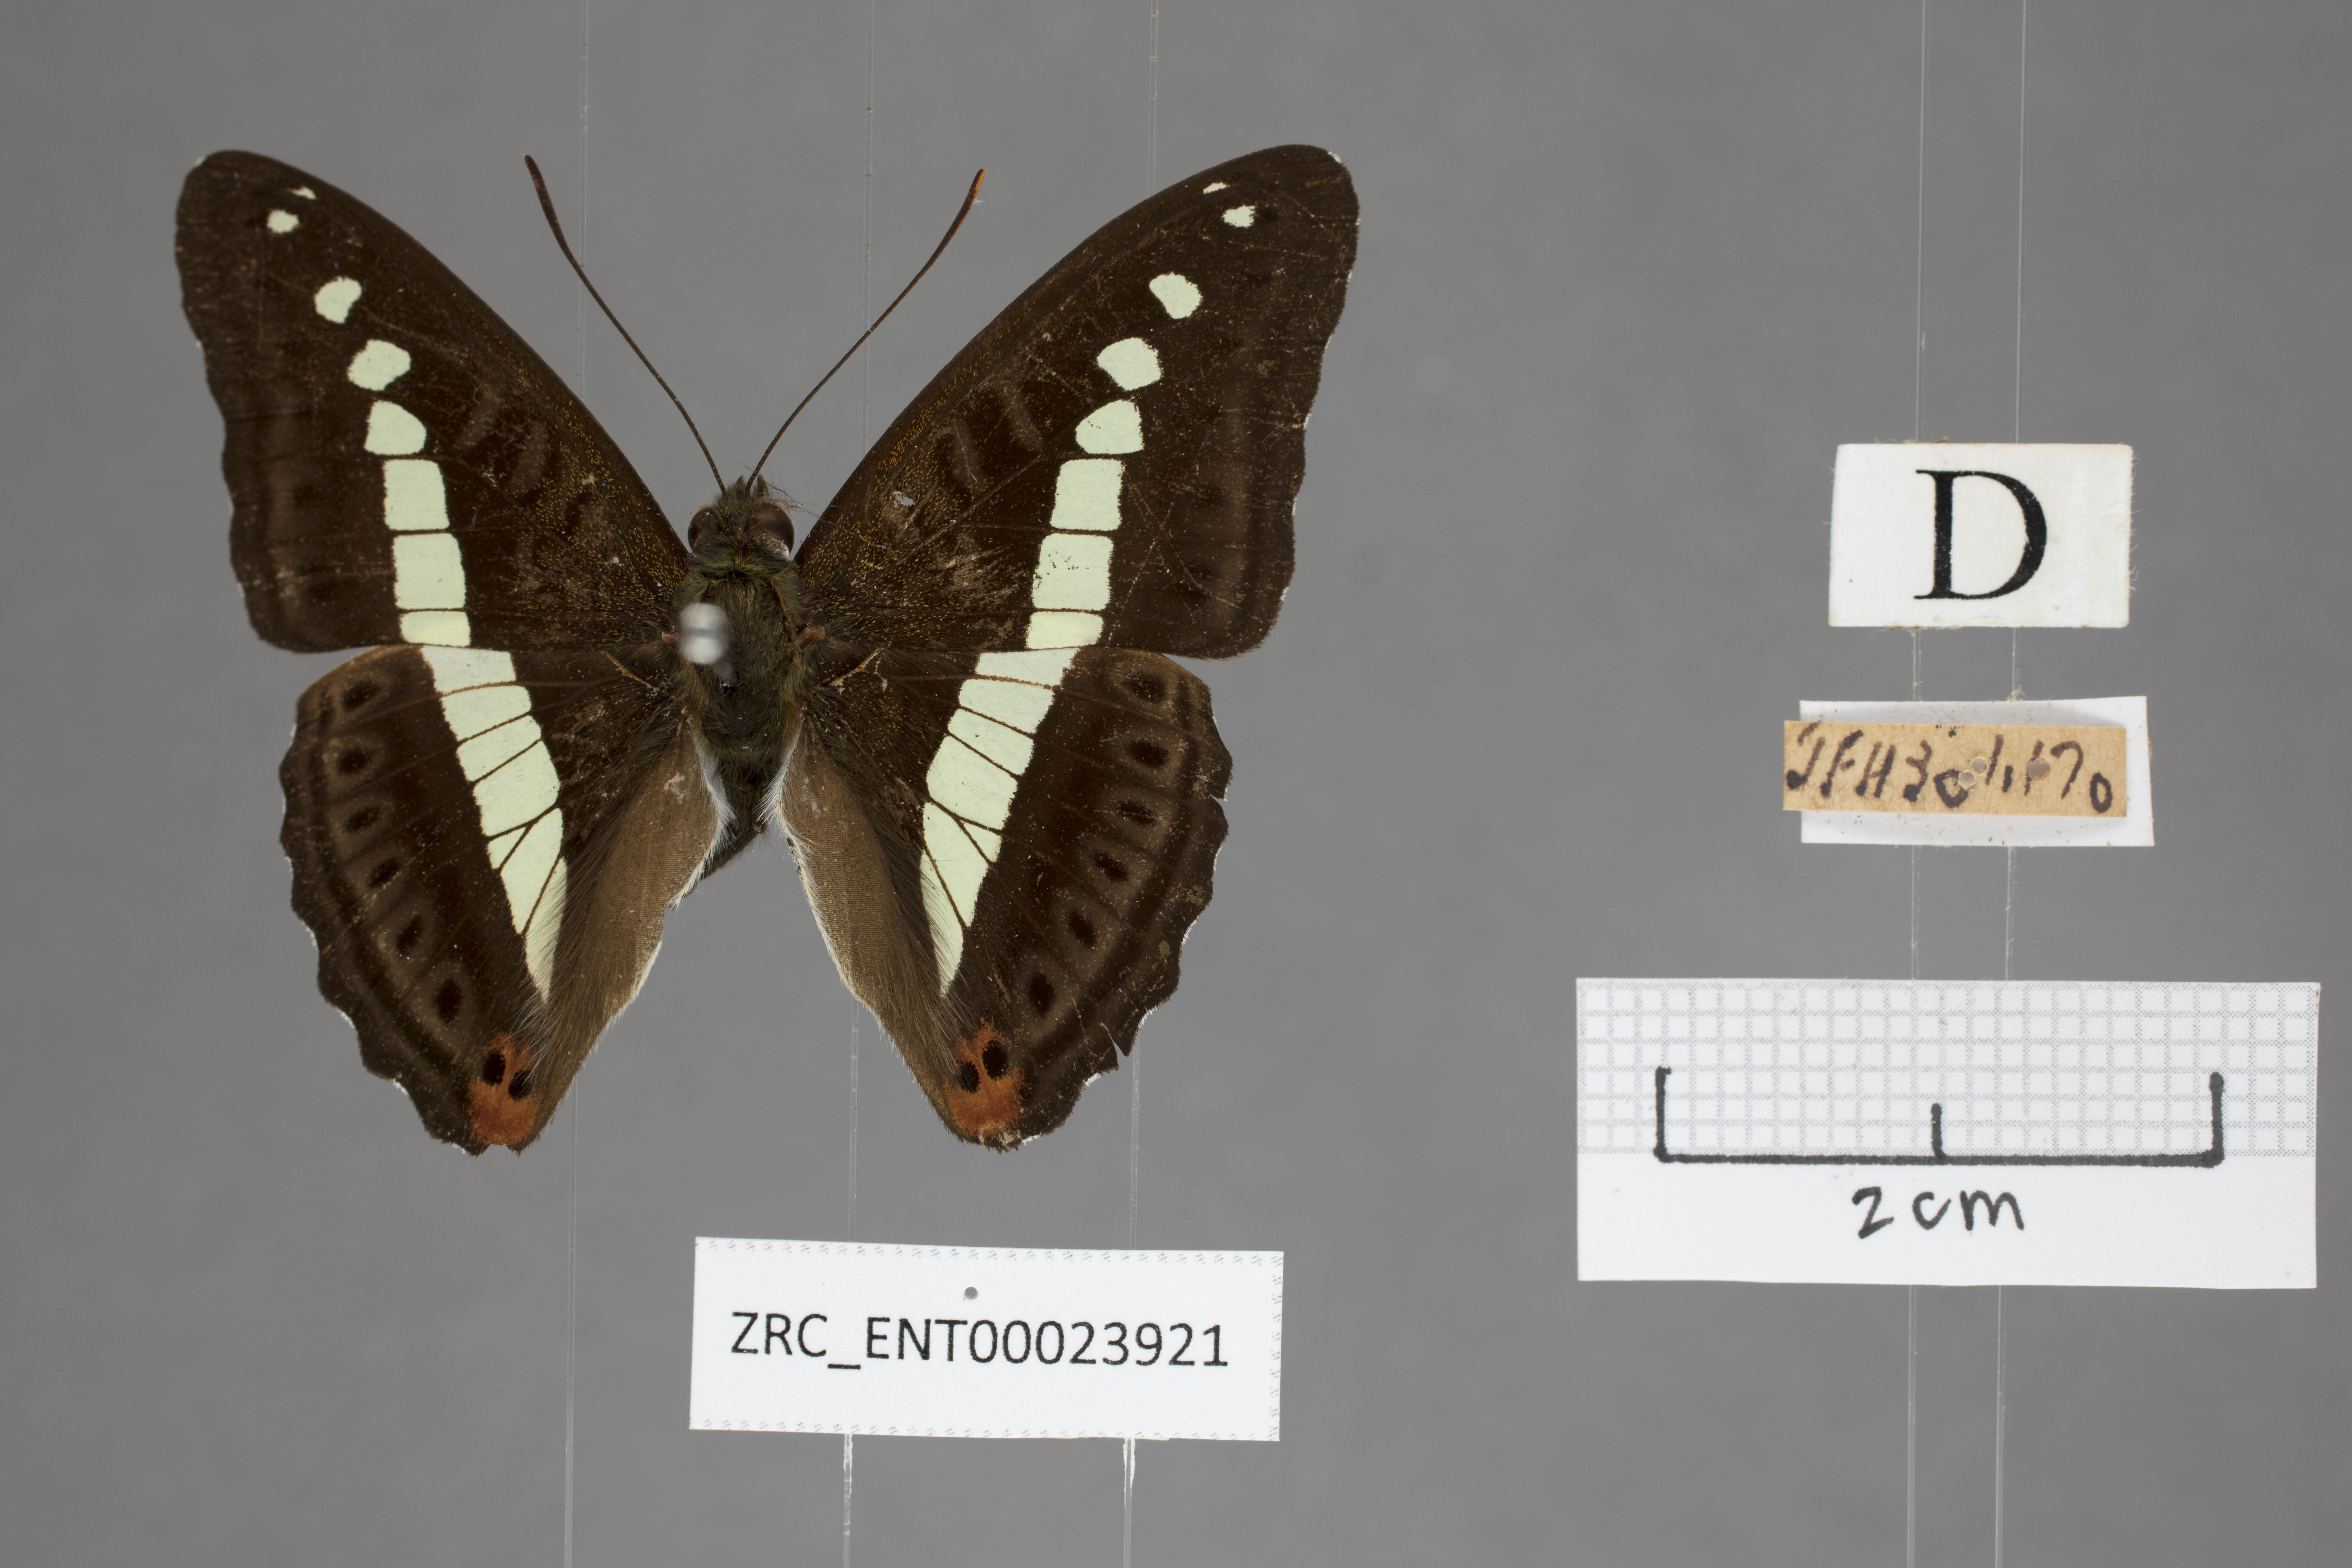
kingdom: Animalia
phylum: Arthropoda
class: Insecta
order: Lepidoptera
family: Nymphalidae
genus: Limenitis
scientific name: Limenitis Sumalia daraxa
